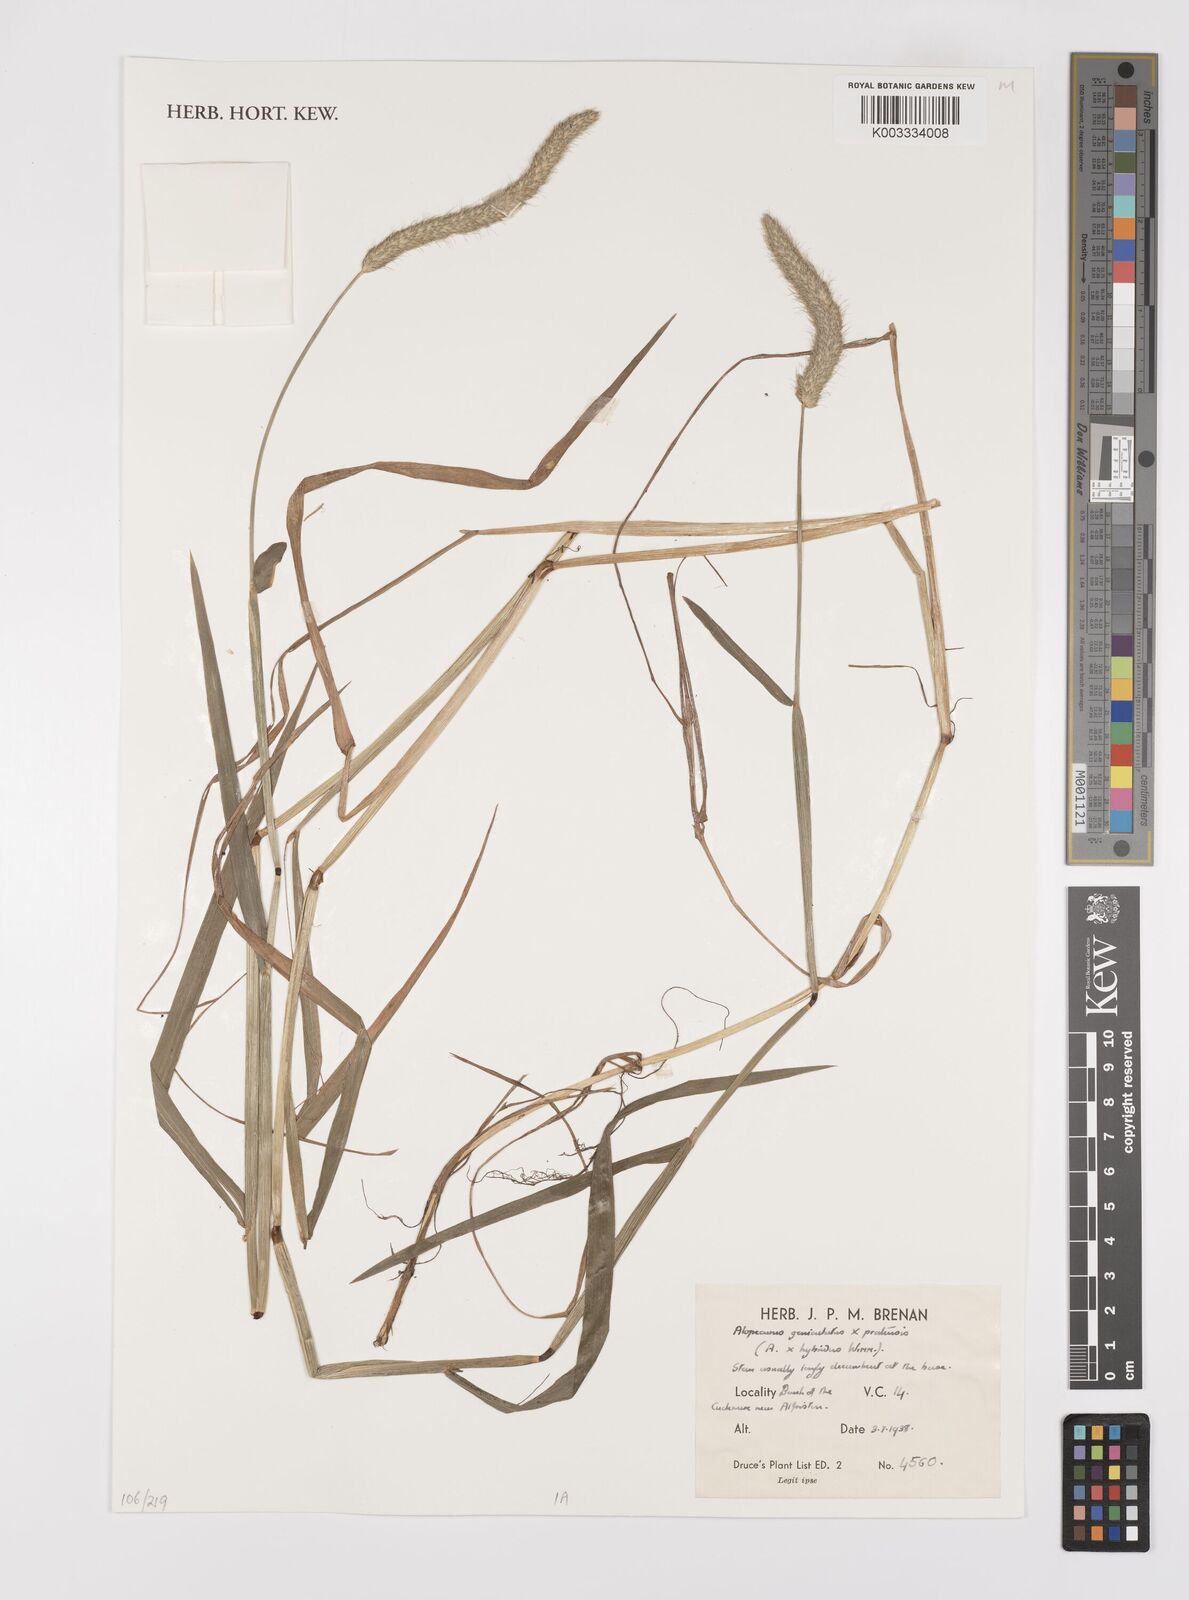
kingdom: Plantae
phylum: Tracheophyta
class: Liliopsida
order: Poales
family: Poaceae
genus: Alopecurus
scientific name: Alopecurus geniculatus
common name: Water foxtail
